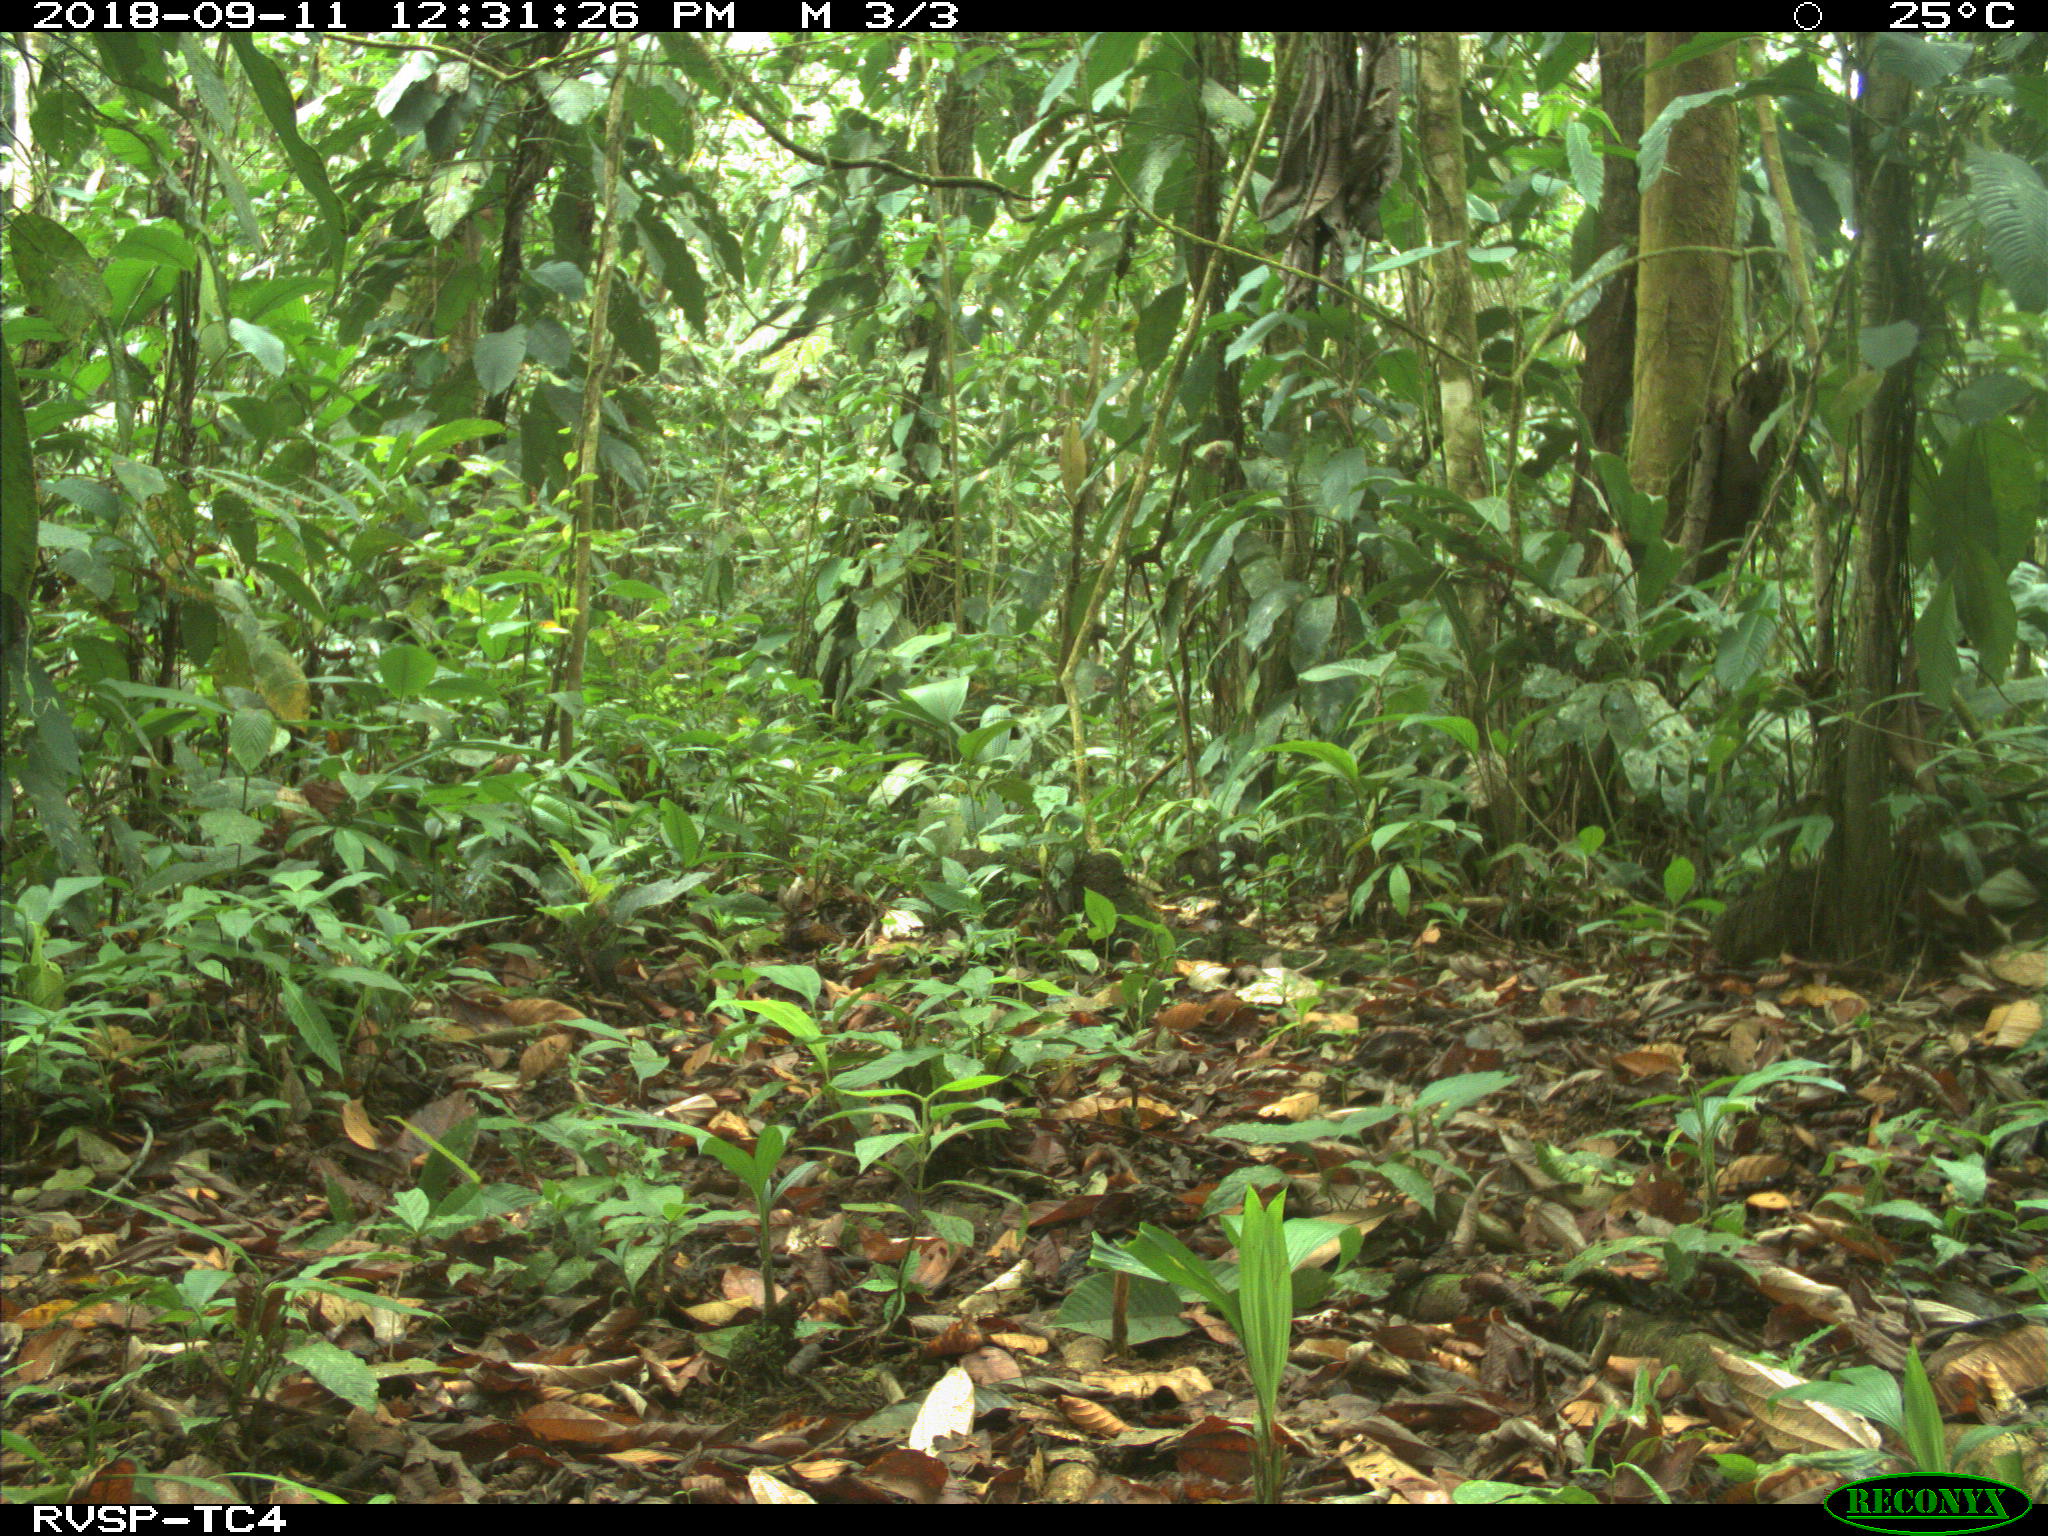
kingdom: Animalia
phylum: Chordata
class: Mammalia
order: Artiodactyla
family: Tayassuidae
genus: Tayassu
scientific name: Tayassu pecari
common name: White-lipped peccary
